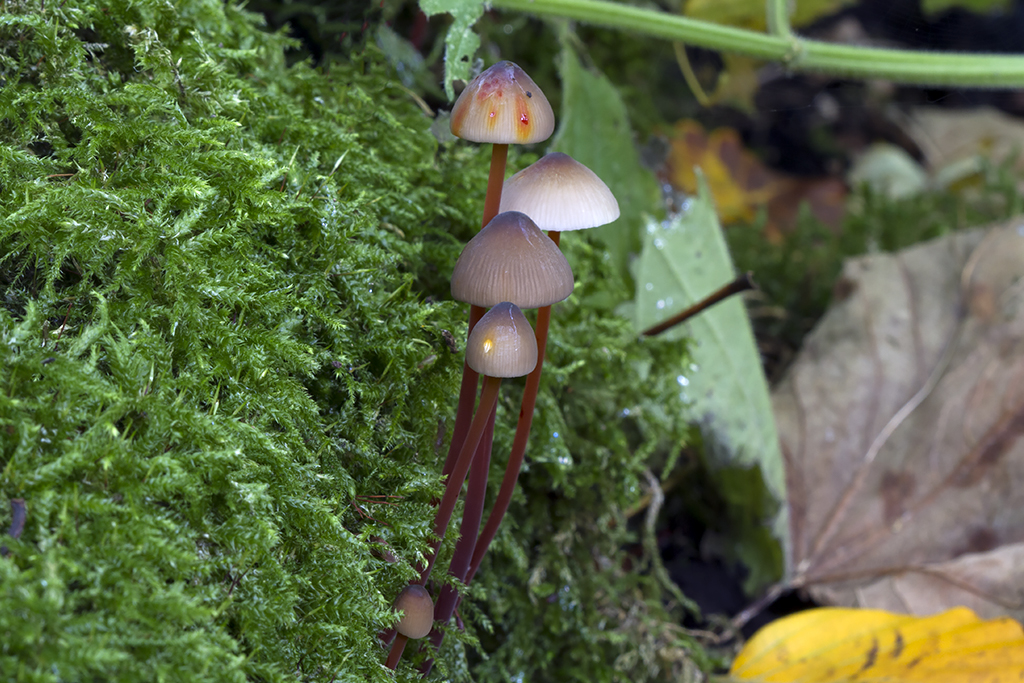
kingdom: Fungi
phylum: Basidiomycota
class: Agaricomycetes
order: Agaricales
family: Mycenaceae
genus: Mycena
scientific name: Mycena crocata
